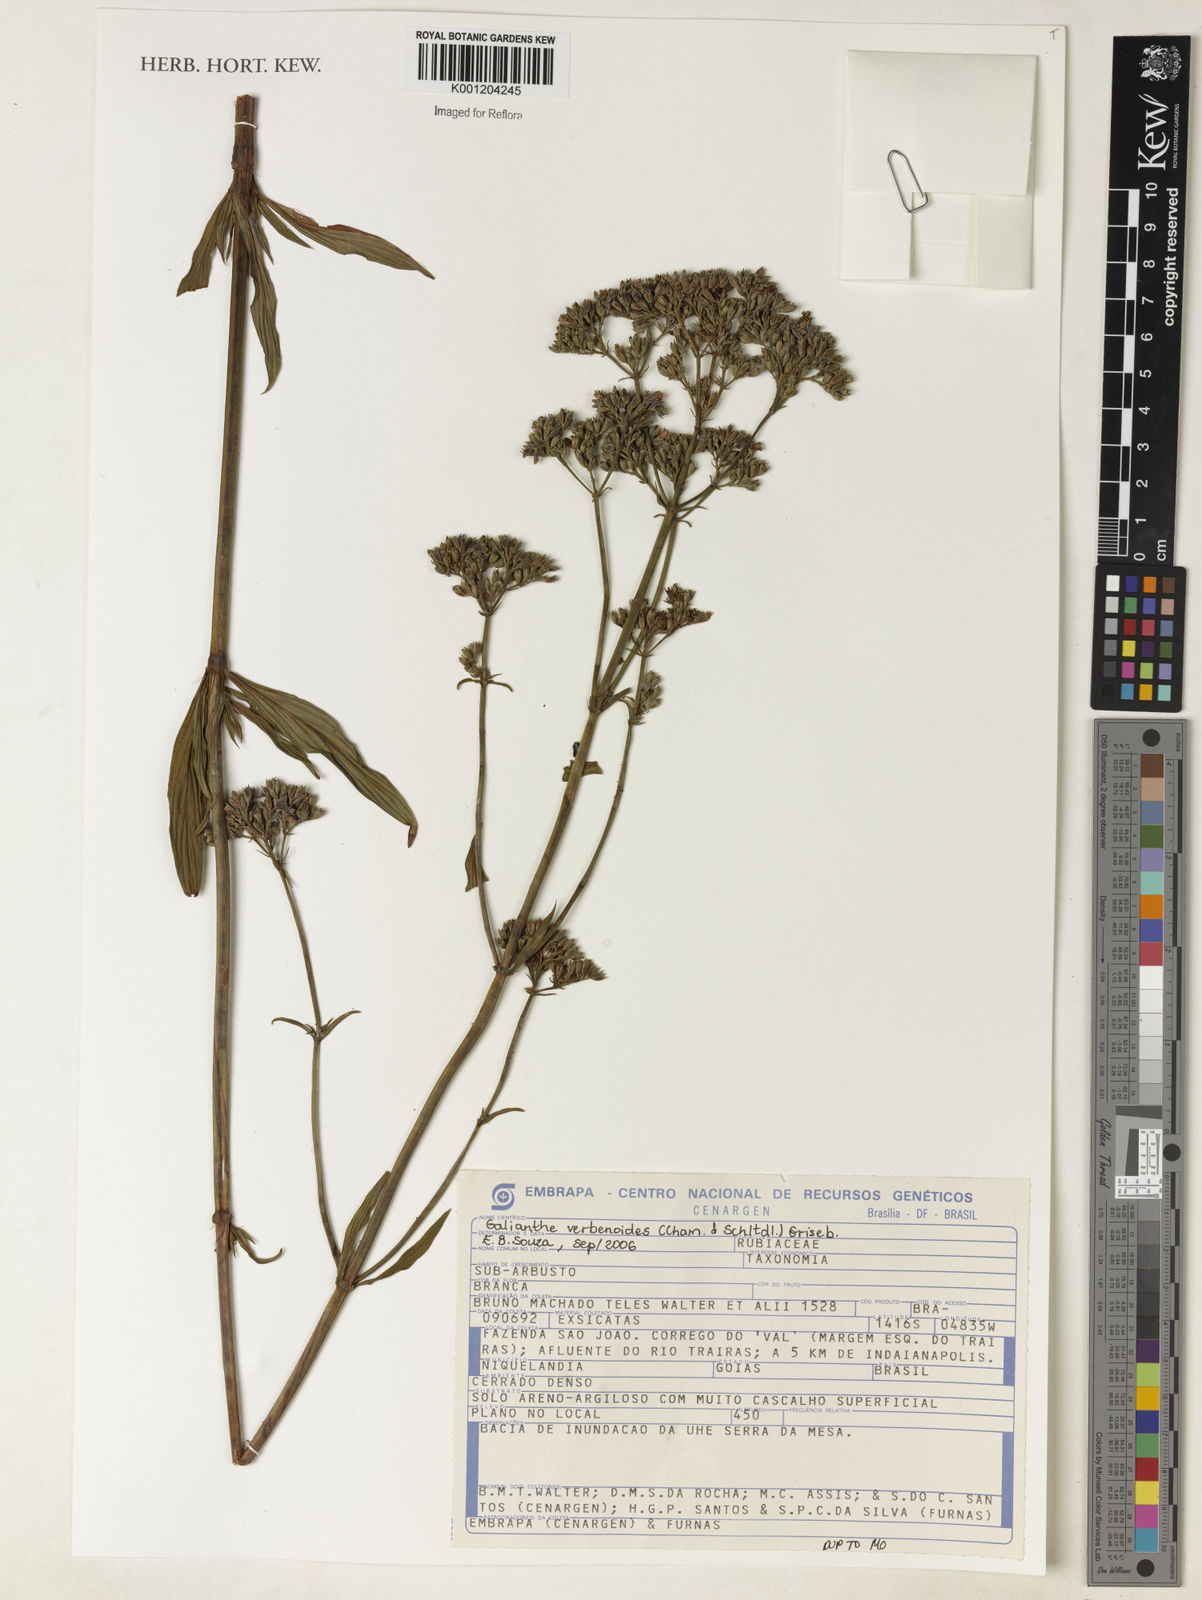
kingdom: Plantae
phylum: Tracheophyta
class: Magnoliopsida
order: Gentianales
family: Rubiaceae
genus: Galianthe
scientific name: Galianthe valerianoides
